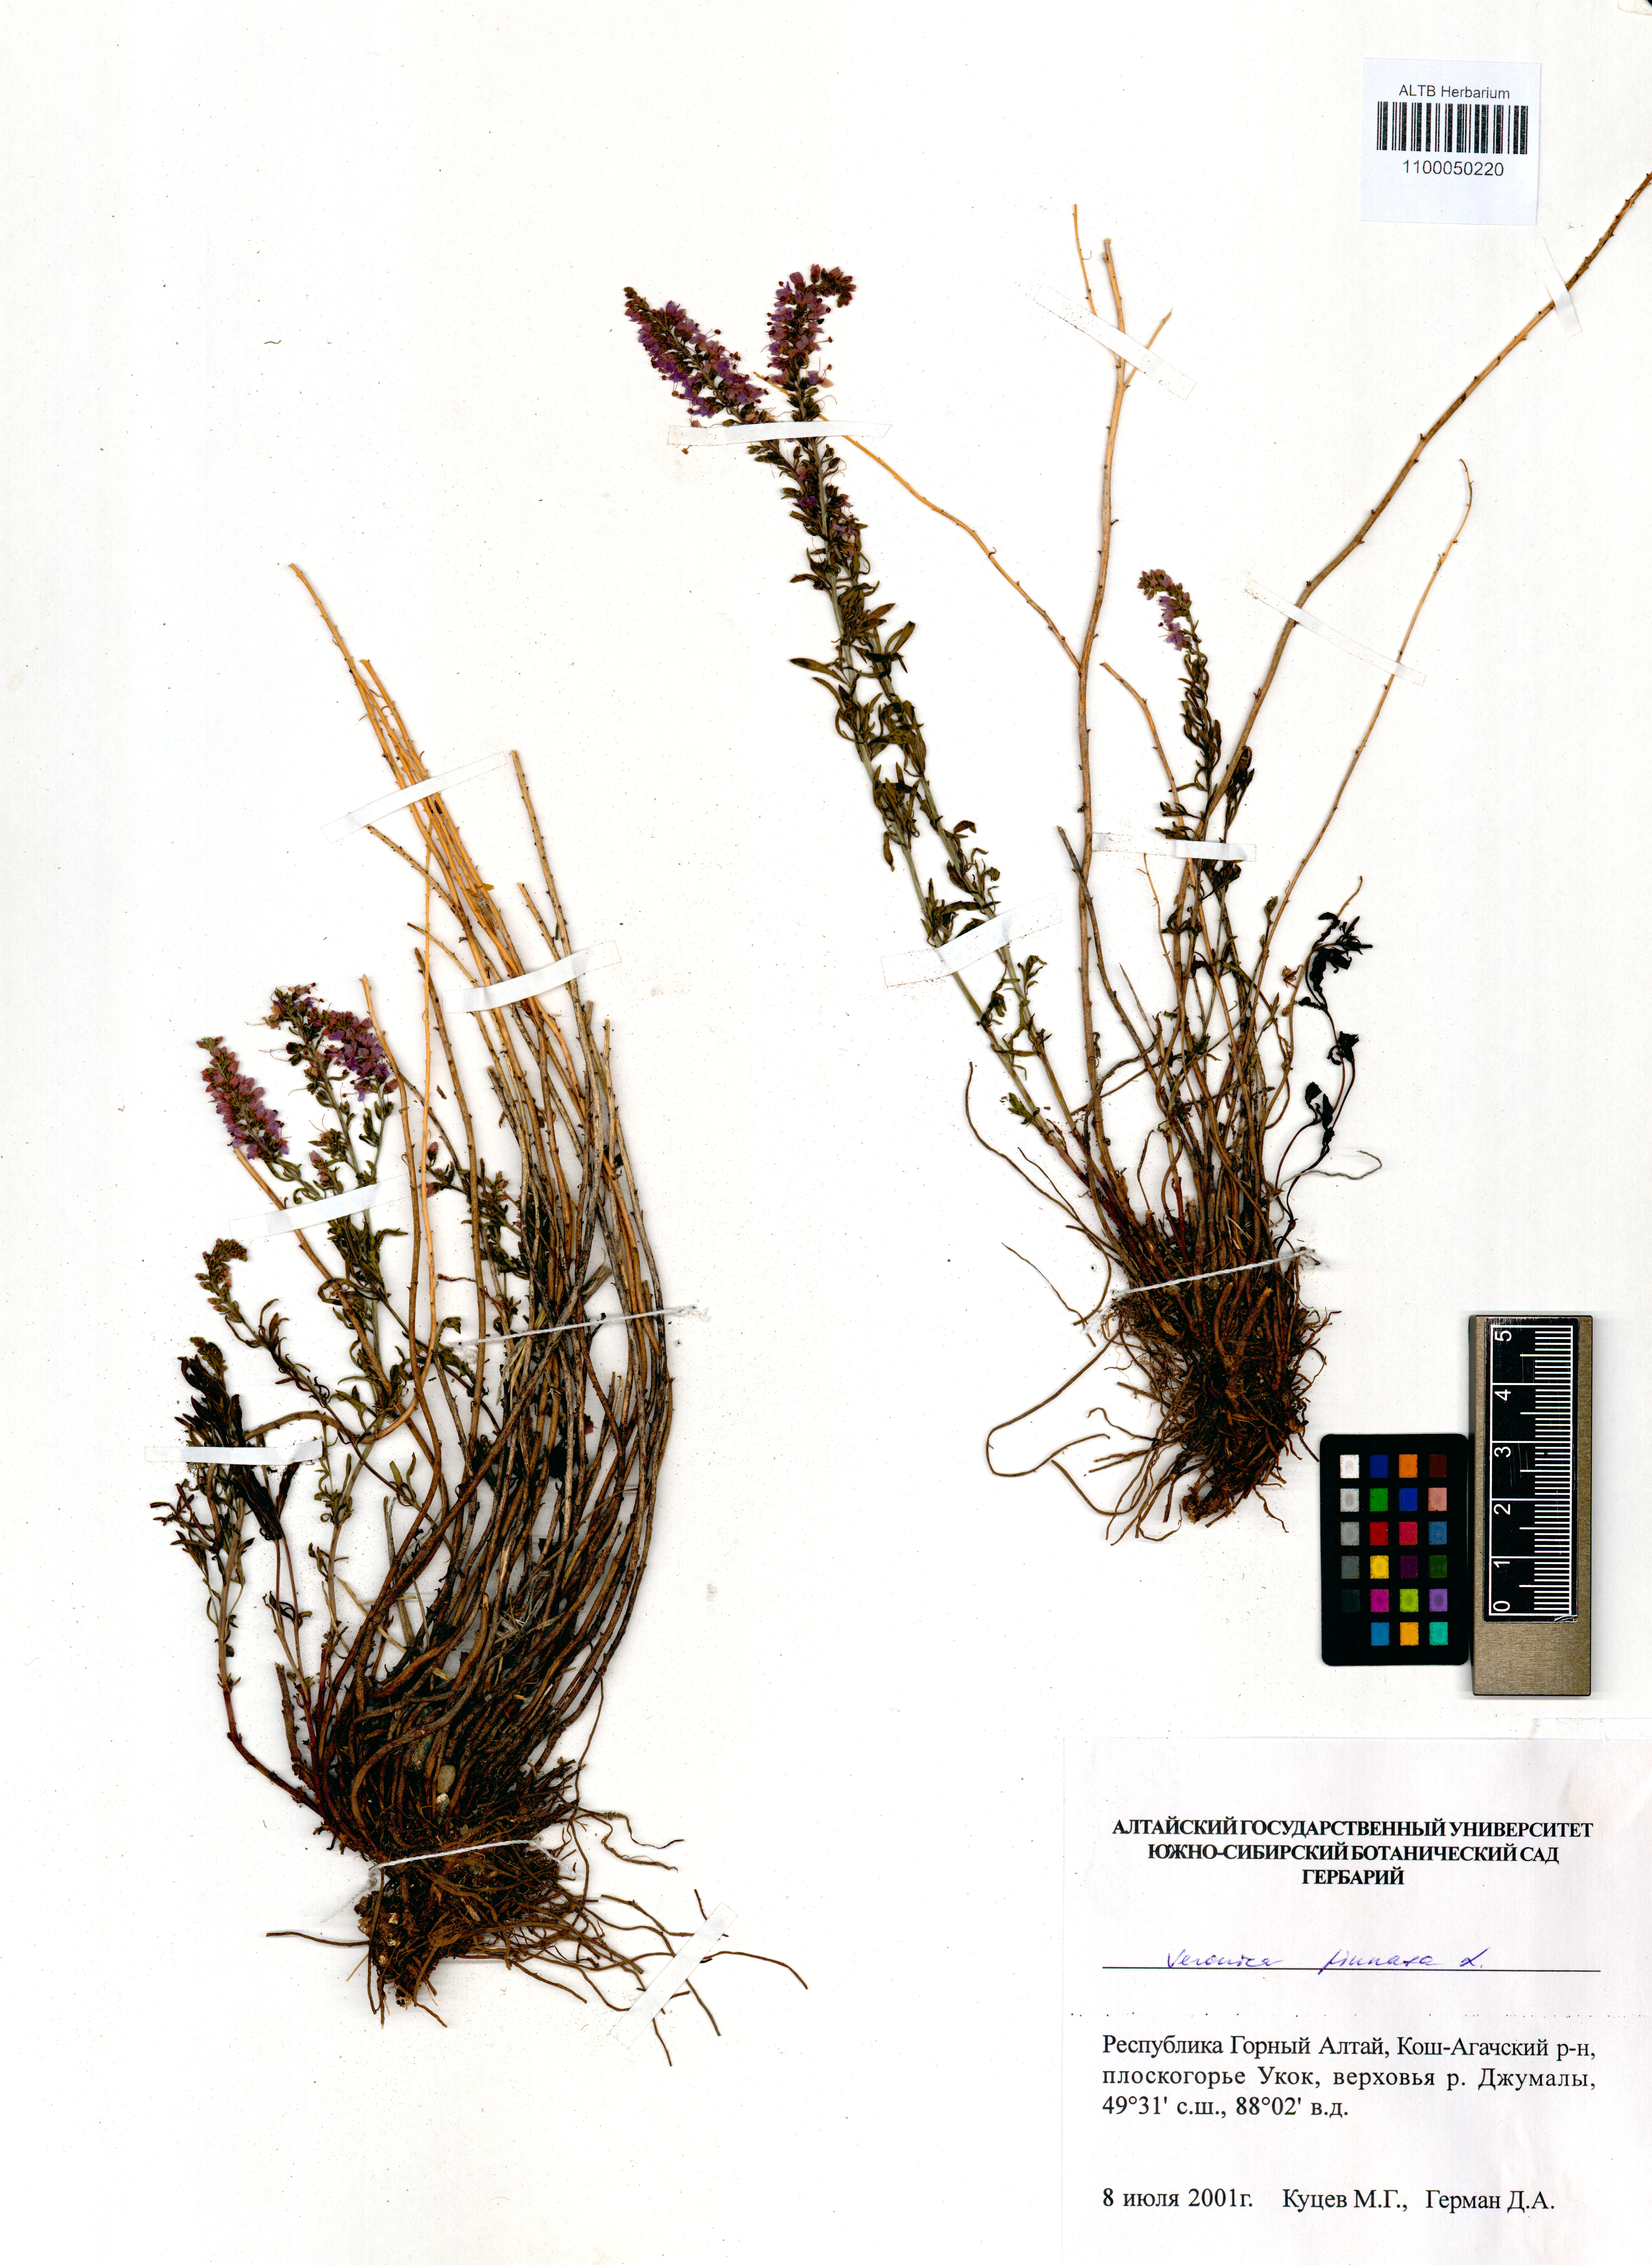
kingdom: Plantae
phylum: Tracheophyta
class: Magnoliopsida
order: Lamiales
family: Plantaginaceae
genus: Veronica
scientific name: Veronica pinnata
